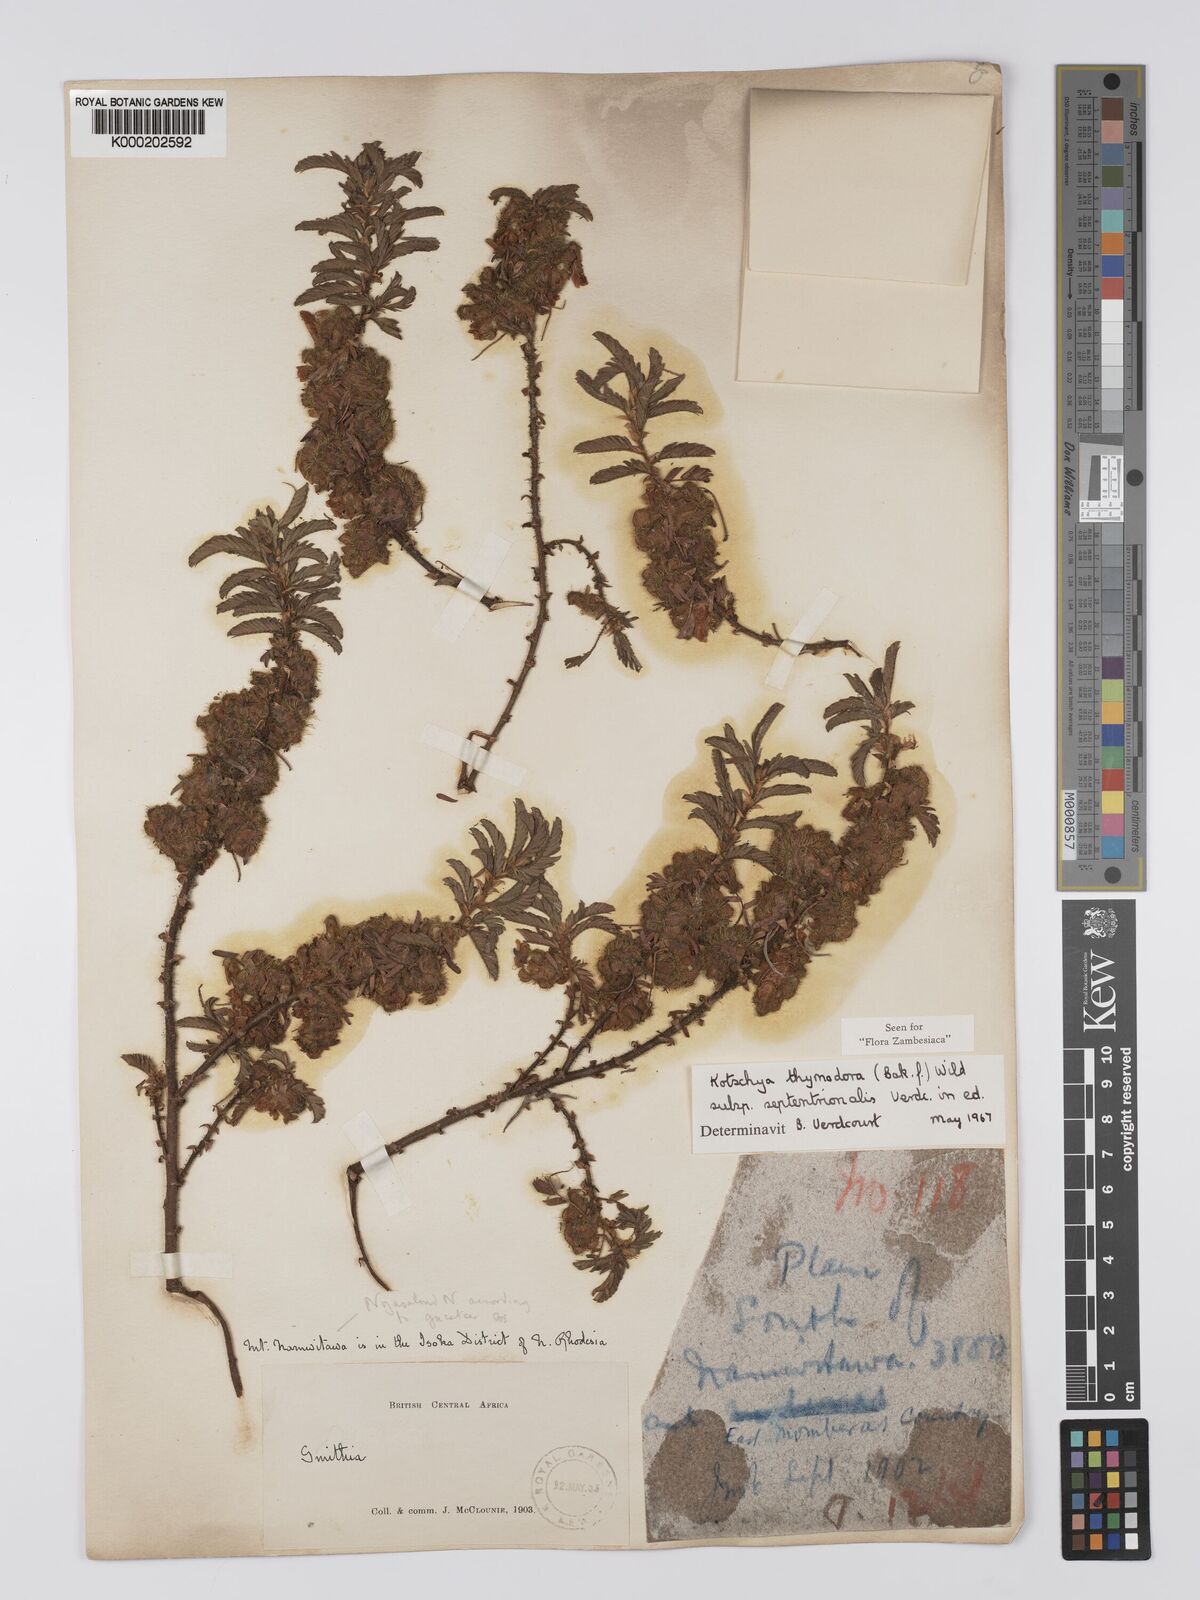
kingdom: Plantae
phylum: Tracheophyta
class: Magnoliopsida
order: Fabales
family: Fabaceae
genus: Kotschya
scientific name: Kotschya thymodora
